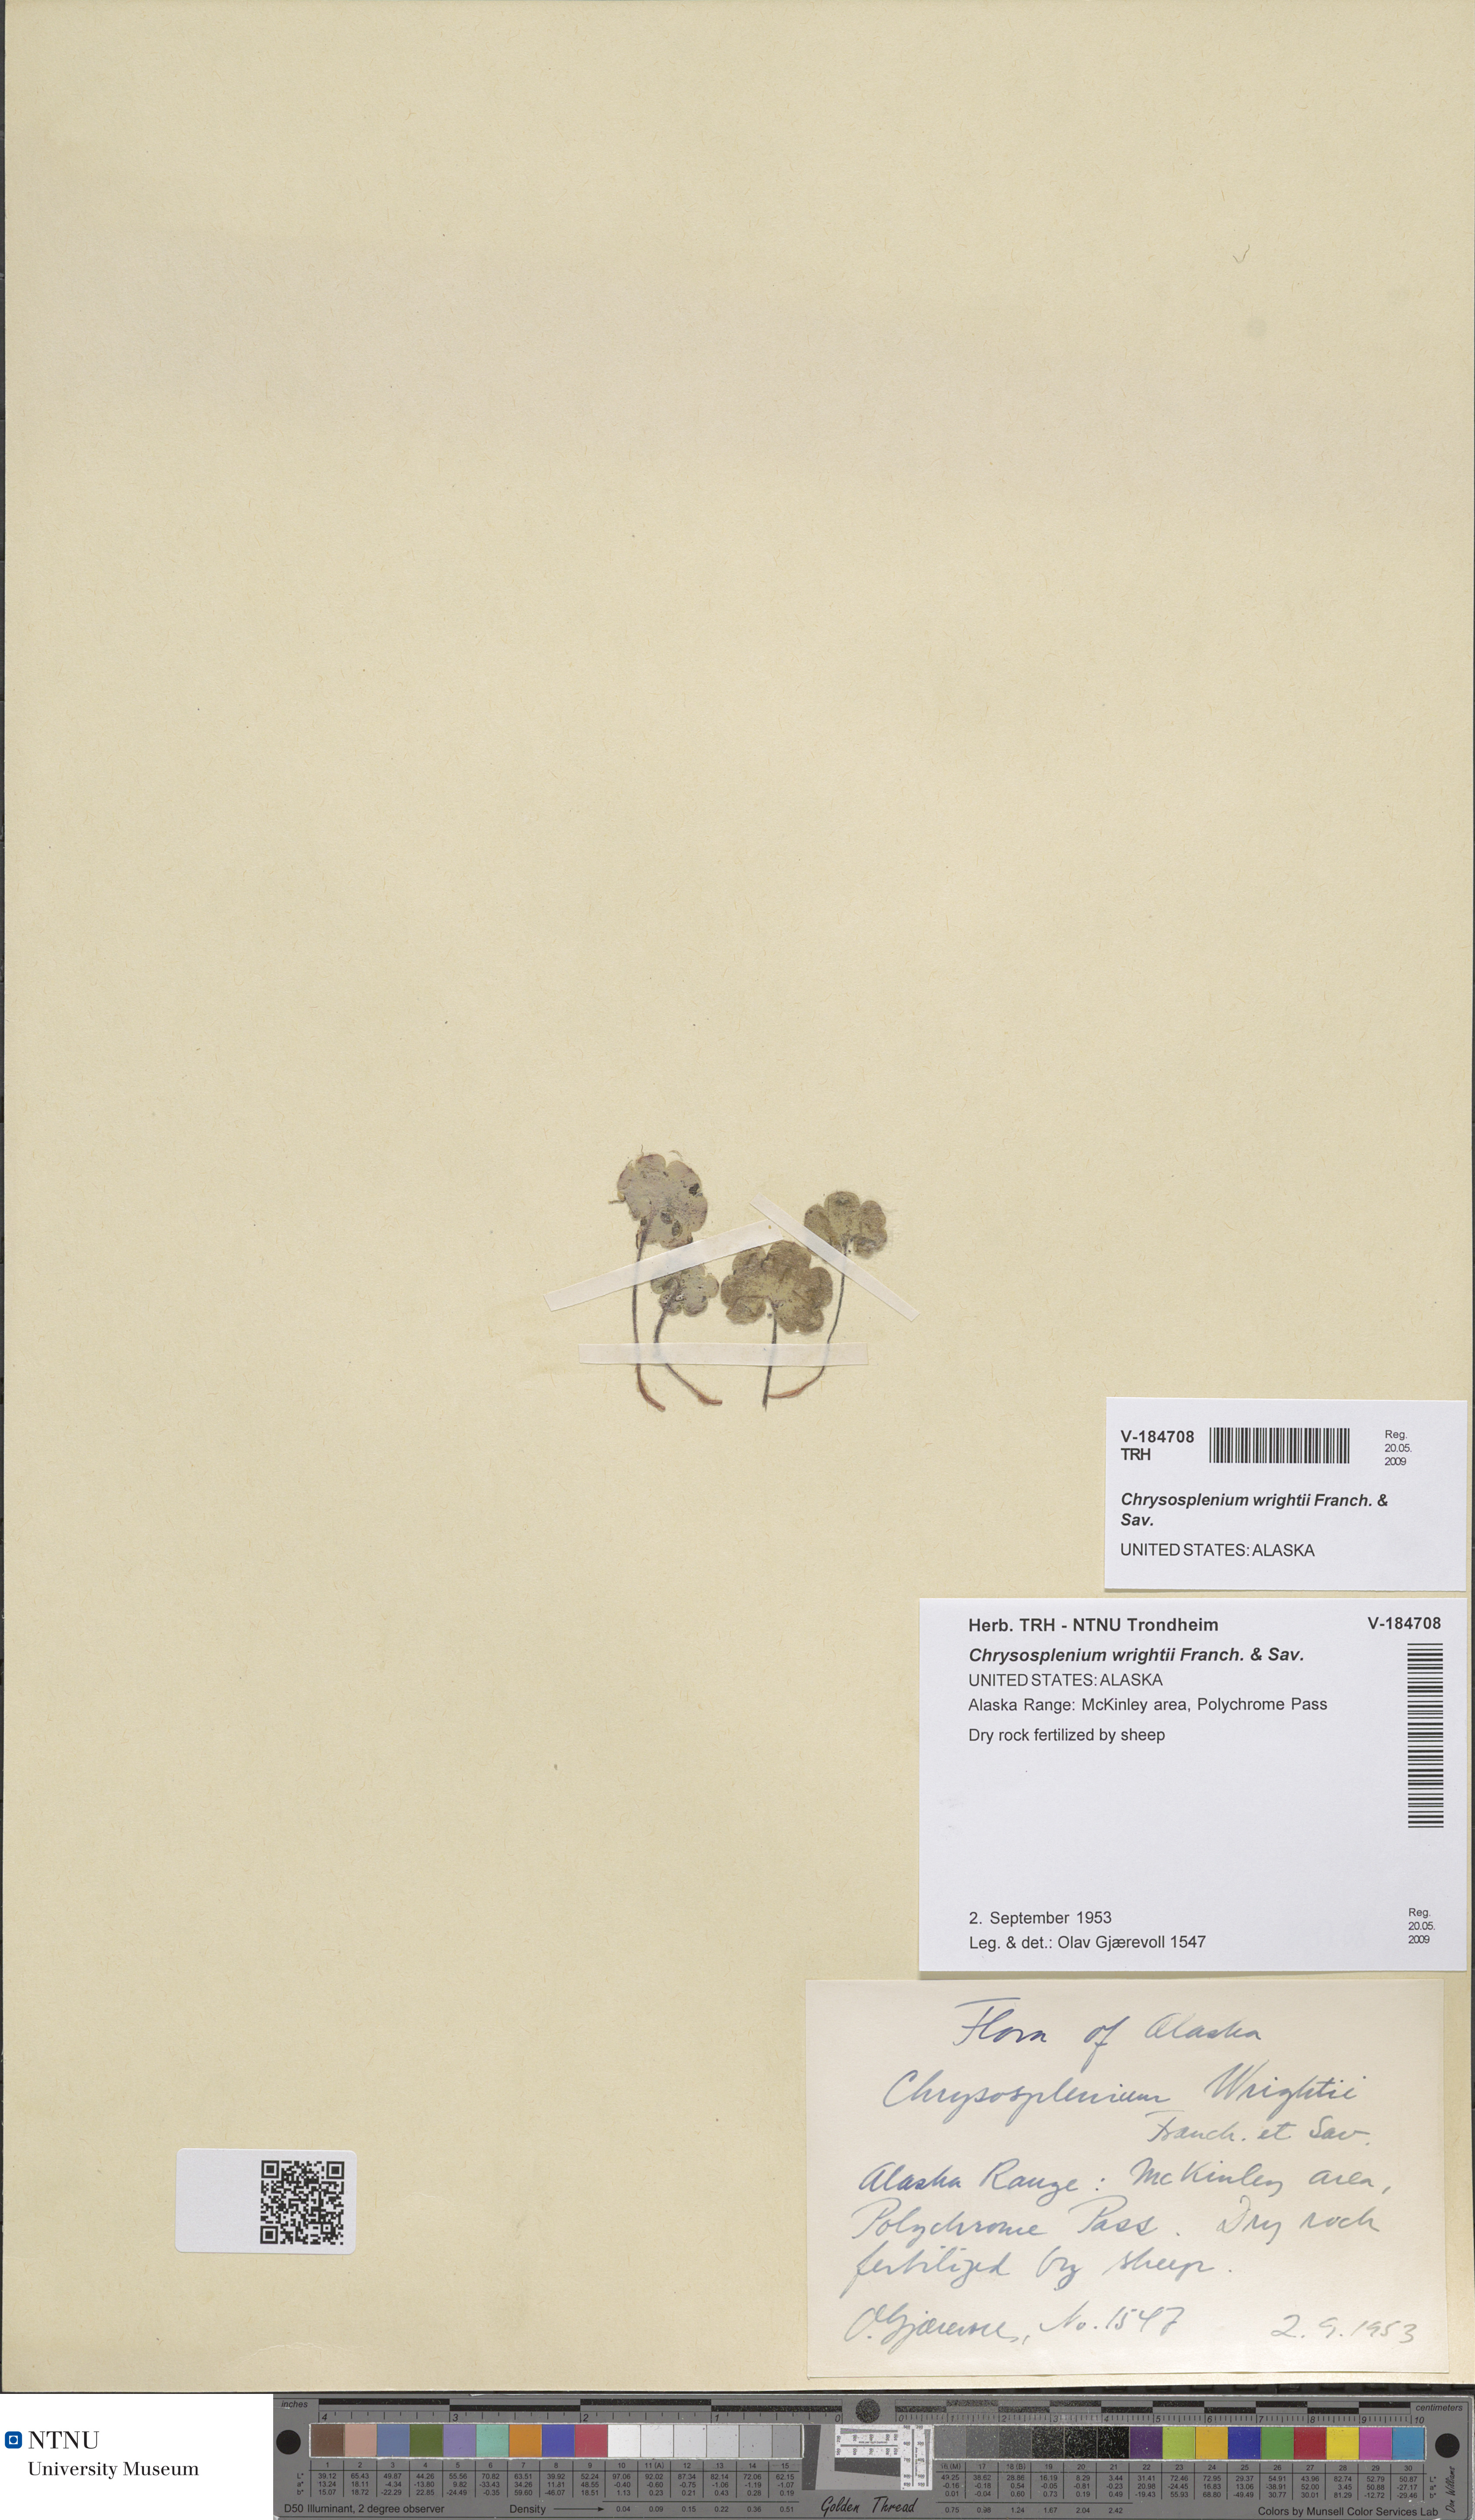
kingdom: Plantae
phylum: Tracheophyta
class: Magnoliopsida
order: Saxifragales
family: Saxifragaceae
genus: Chrysosplenium
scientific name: Chrysosplenium wrightii
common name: Wright's golden carpet
